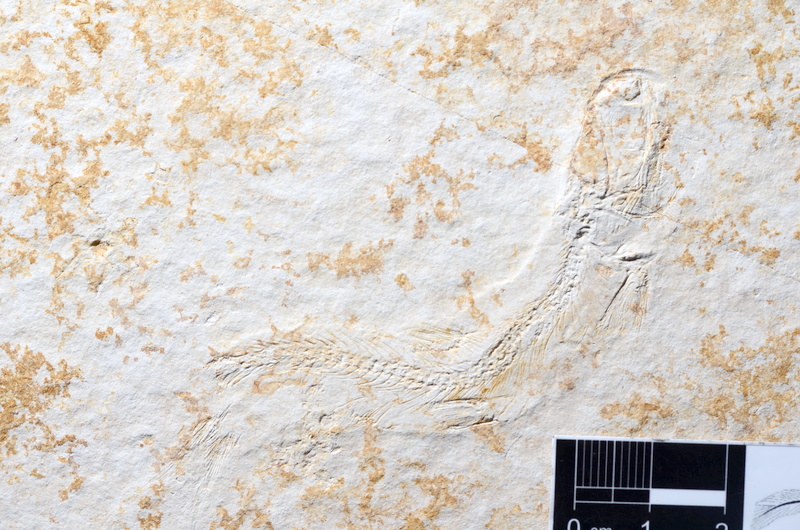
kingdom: Animalia
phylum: Chordata
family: Ascalaboidae
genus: Tharsis
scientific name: Tharsis dubius
